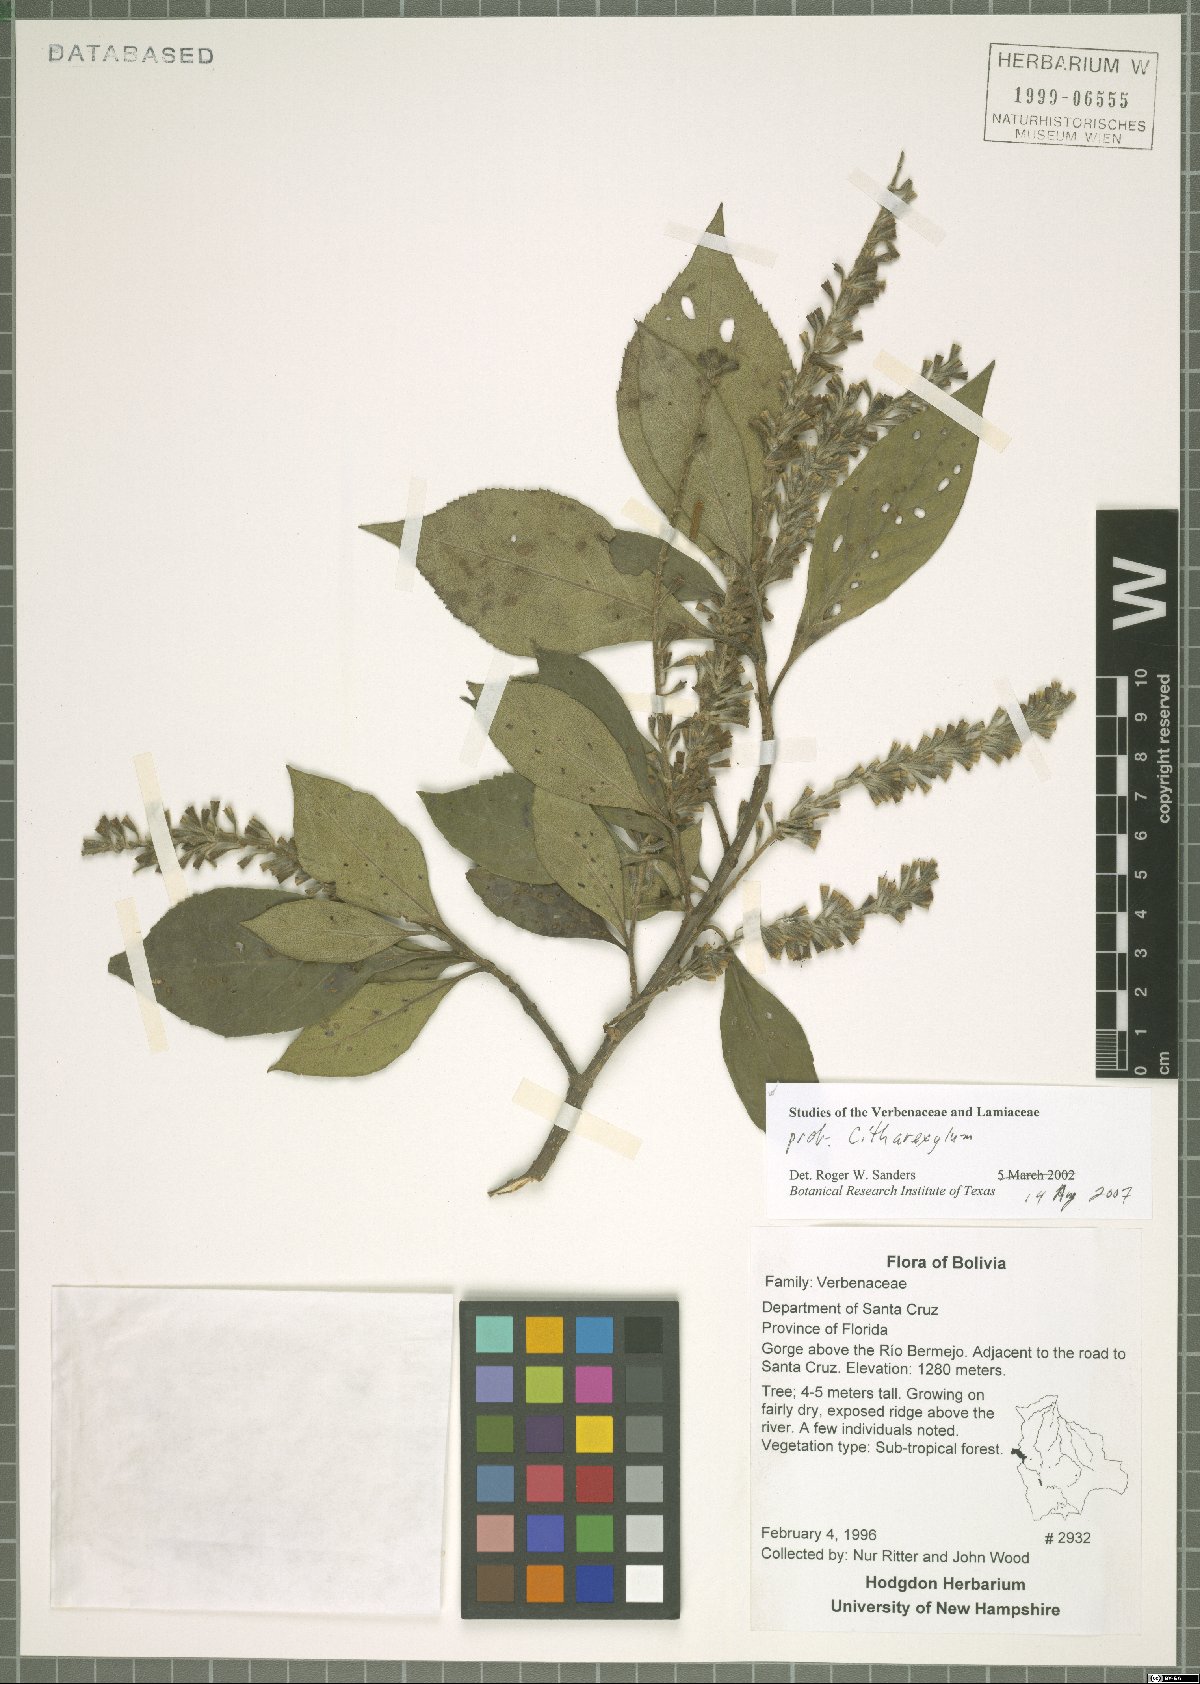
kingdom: Plantae
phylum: Tracheophyta
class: Magnoliopsida
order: Lamiales
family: Verbenaceae
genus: Citharexylum
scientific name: Citharexylum
